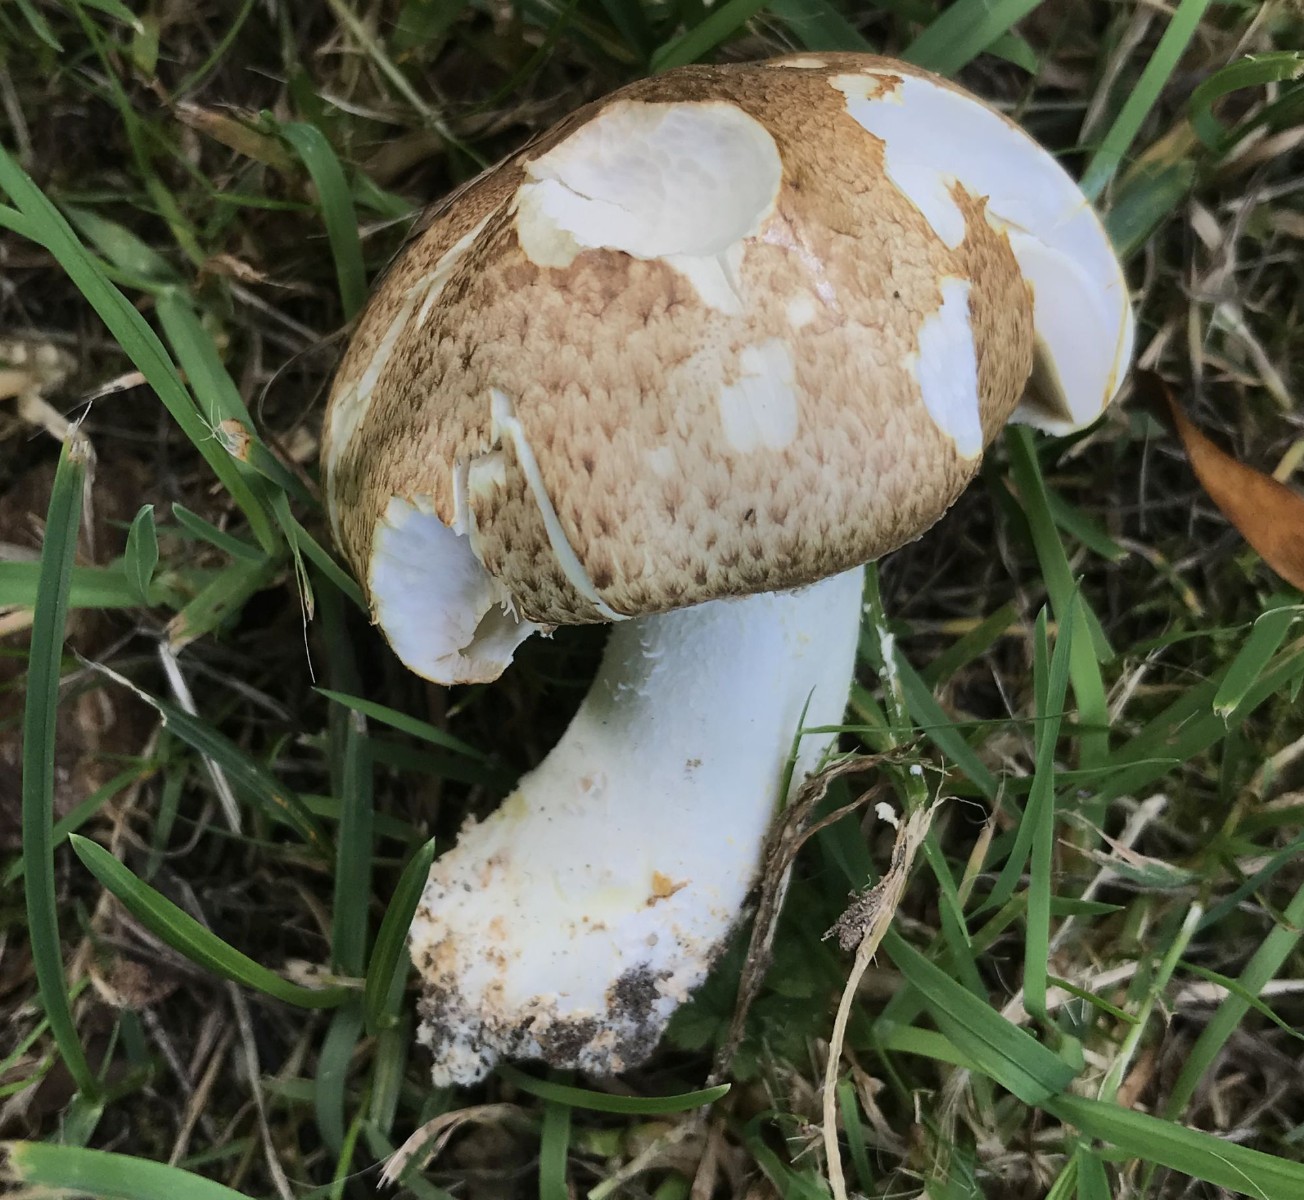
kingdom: Fungi
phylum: Basidiomycota
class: Agaricomycetes
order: Agaricales
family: Agaricaceae
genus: Agaricus
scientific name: Agaricus augustus
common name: prægtig champignon
